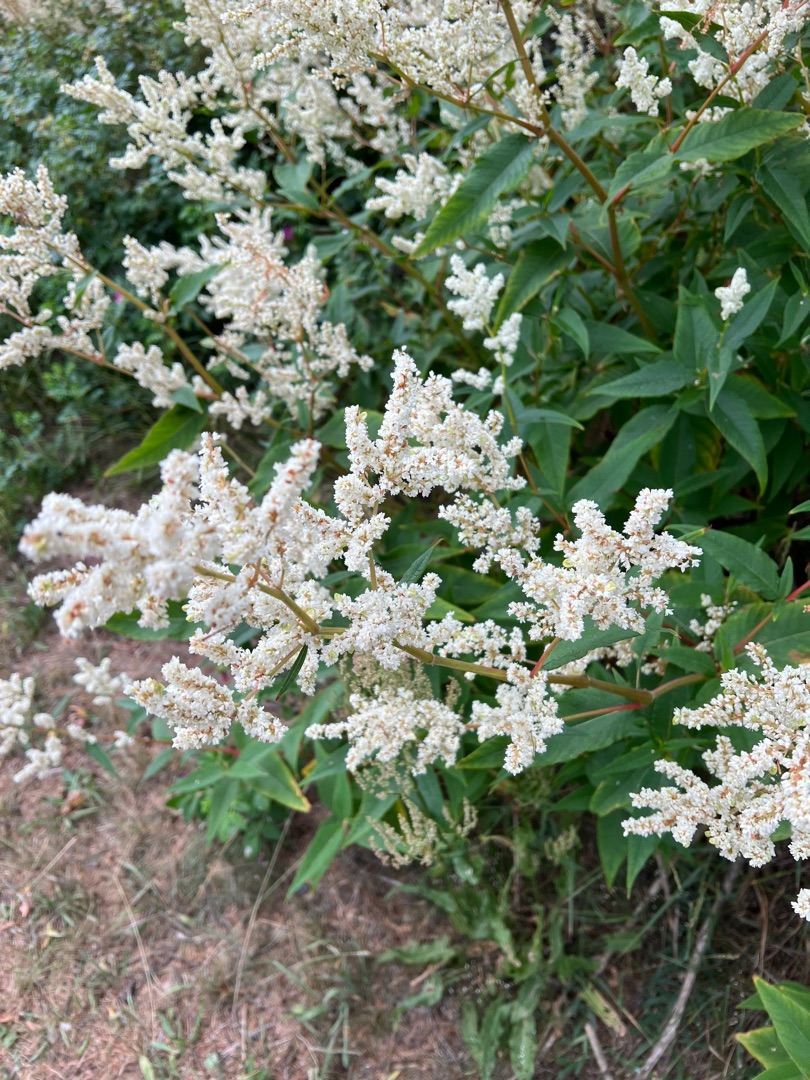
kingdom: Plantae
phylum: Tracheophyta
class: Magnoliopsida
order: Caryophyllales
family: Polygonaceae
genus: Koenigia
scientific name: Koenigia fennica
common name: Finsk pileurt
